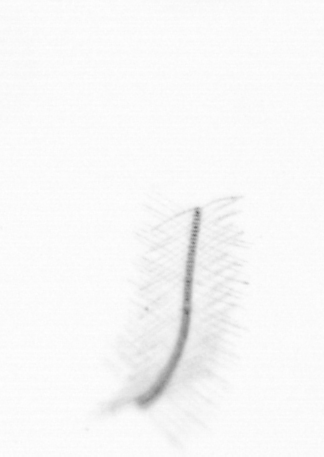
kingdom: Chromista
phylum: Ochrophyta
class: Bacillariophyceae
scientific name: Bacillariophyceae
